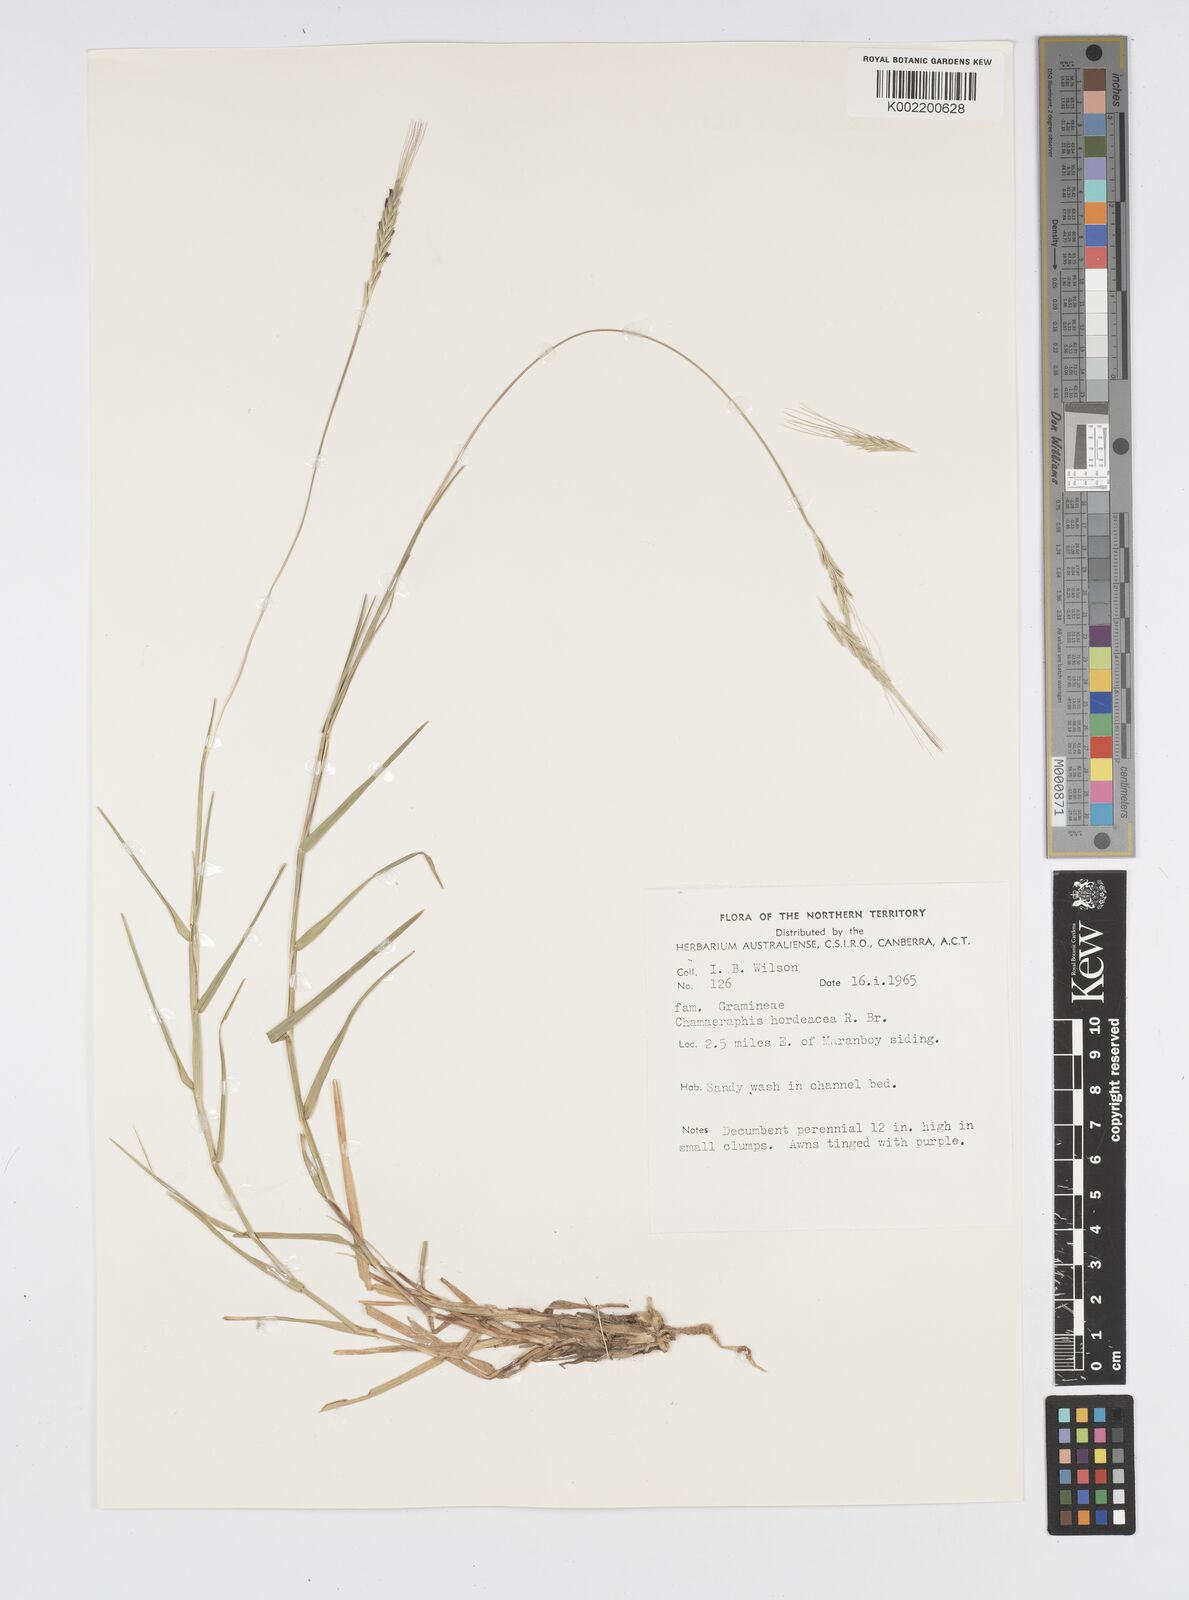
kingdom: Plantae
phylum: Tracheophyta
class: Liliopsida
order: Poales
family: Poaceae
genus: Chamaeraphis
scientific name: Chamaeraphis hordeacea
